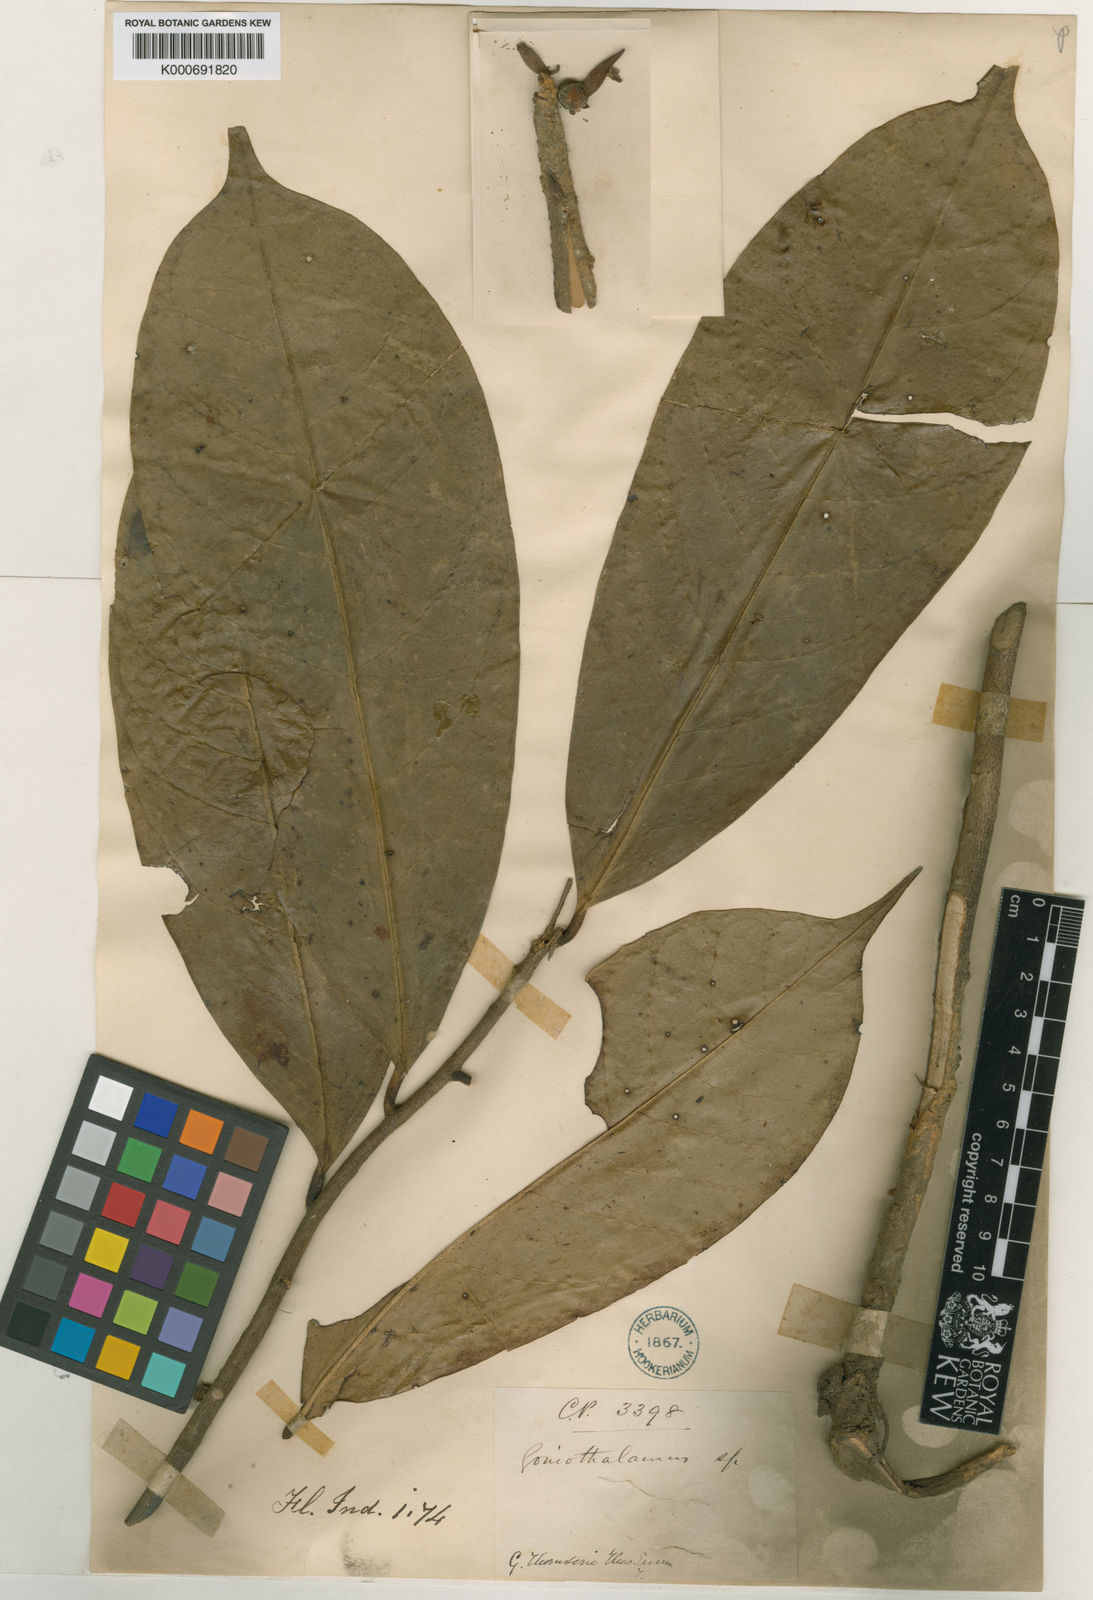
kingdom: Plantae
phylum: Tracheophyta
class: Magnoliopsida
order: Magnoliales
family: Annonaceae
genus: Goniothalamus
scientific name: Goniothalamus thomsonii
